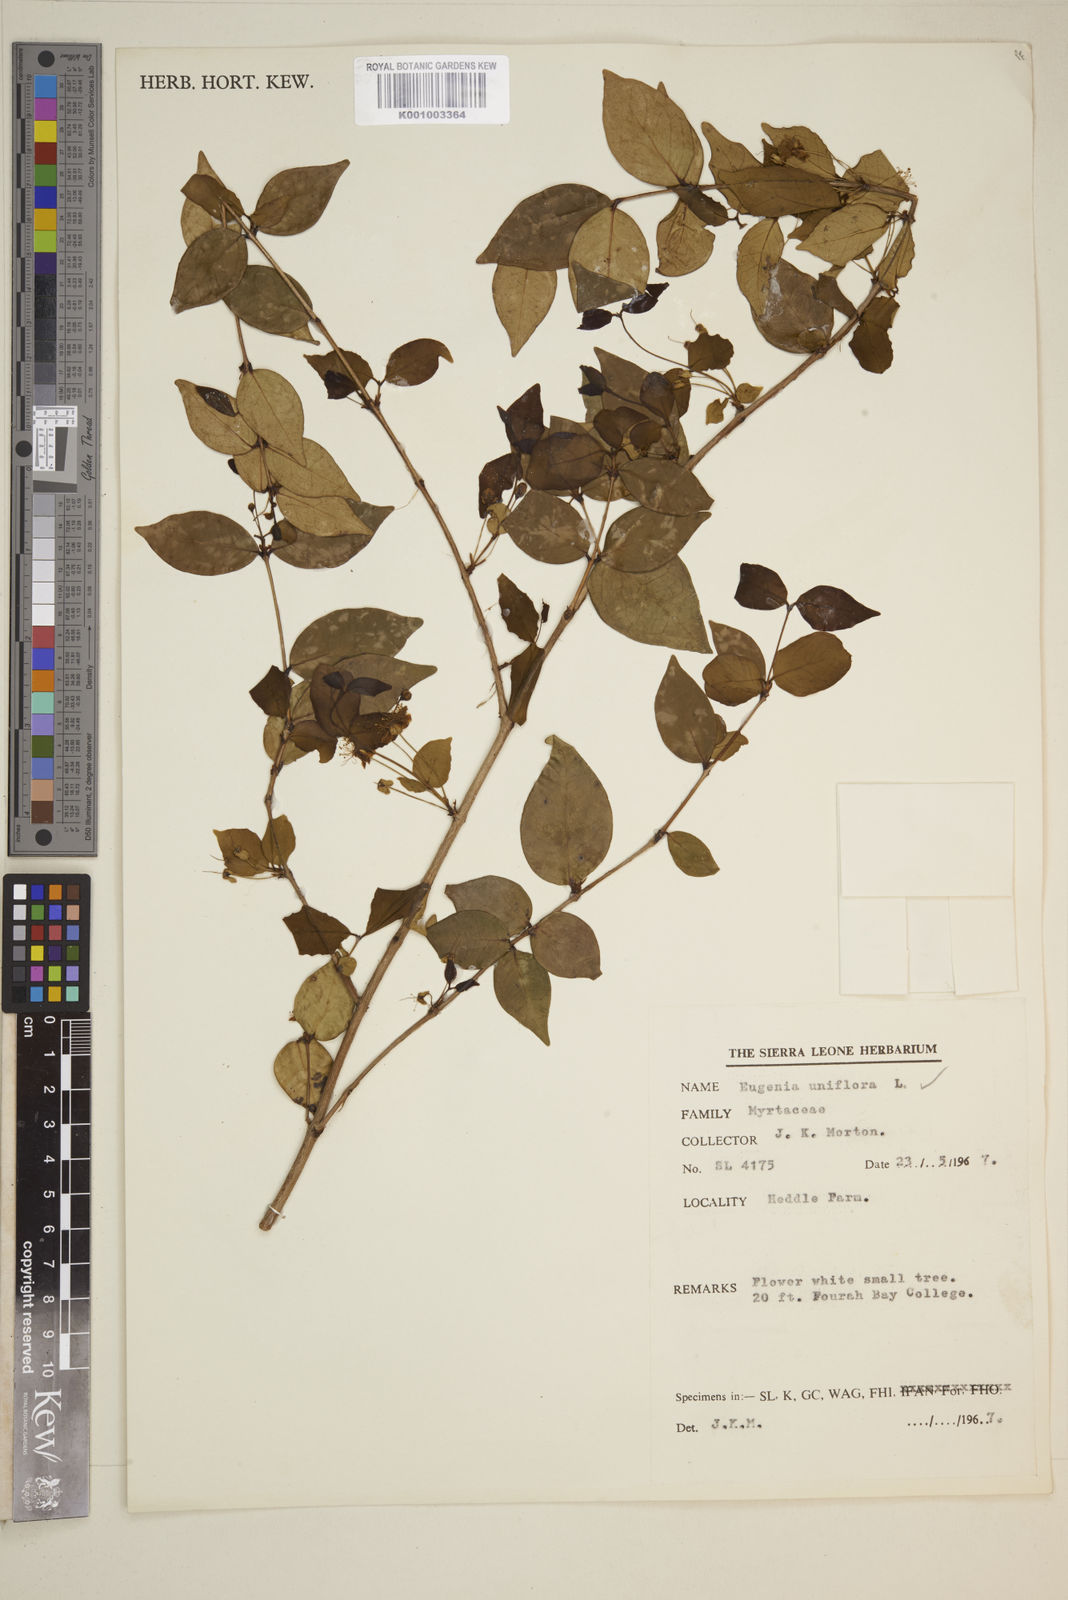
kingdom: Plantae
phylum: Tracheophyta
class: Magnoliopsida
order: Myrtales
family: Myrtaceae
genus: Eugenia
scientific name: Eugenia uniflora
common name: Surinam cherry
